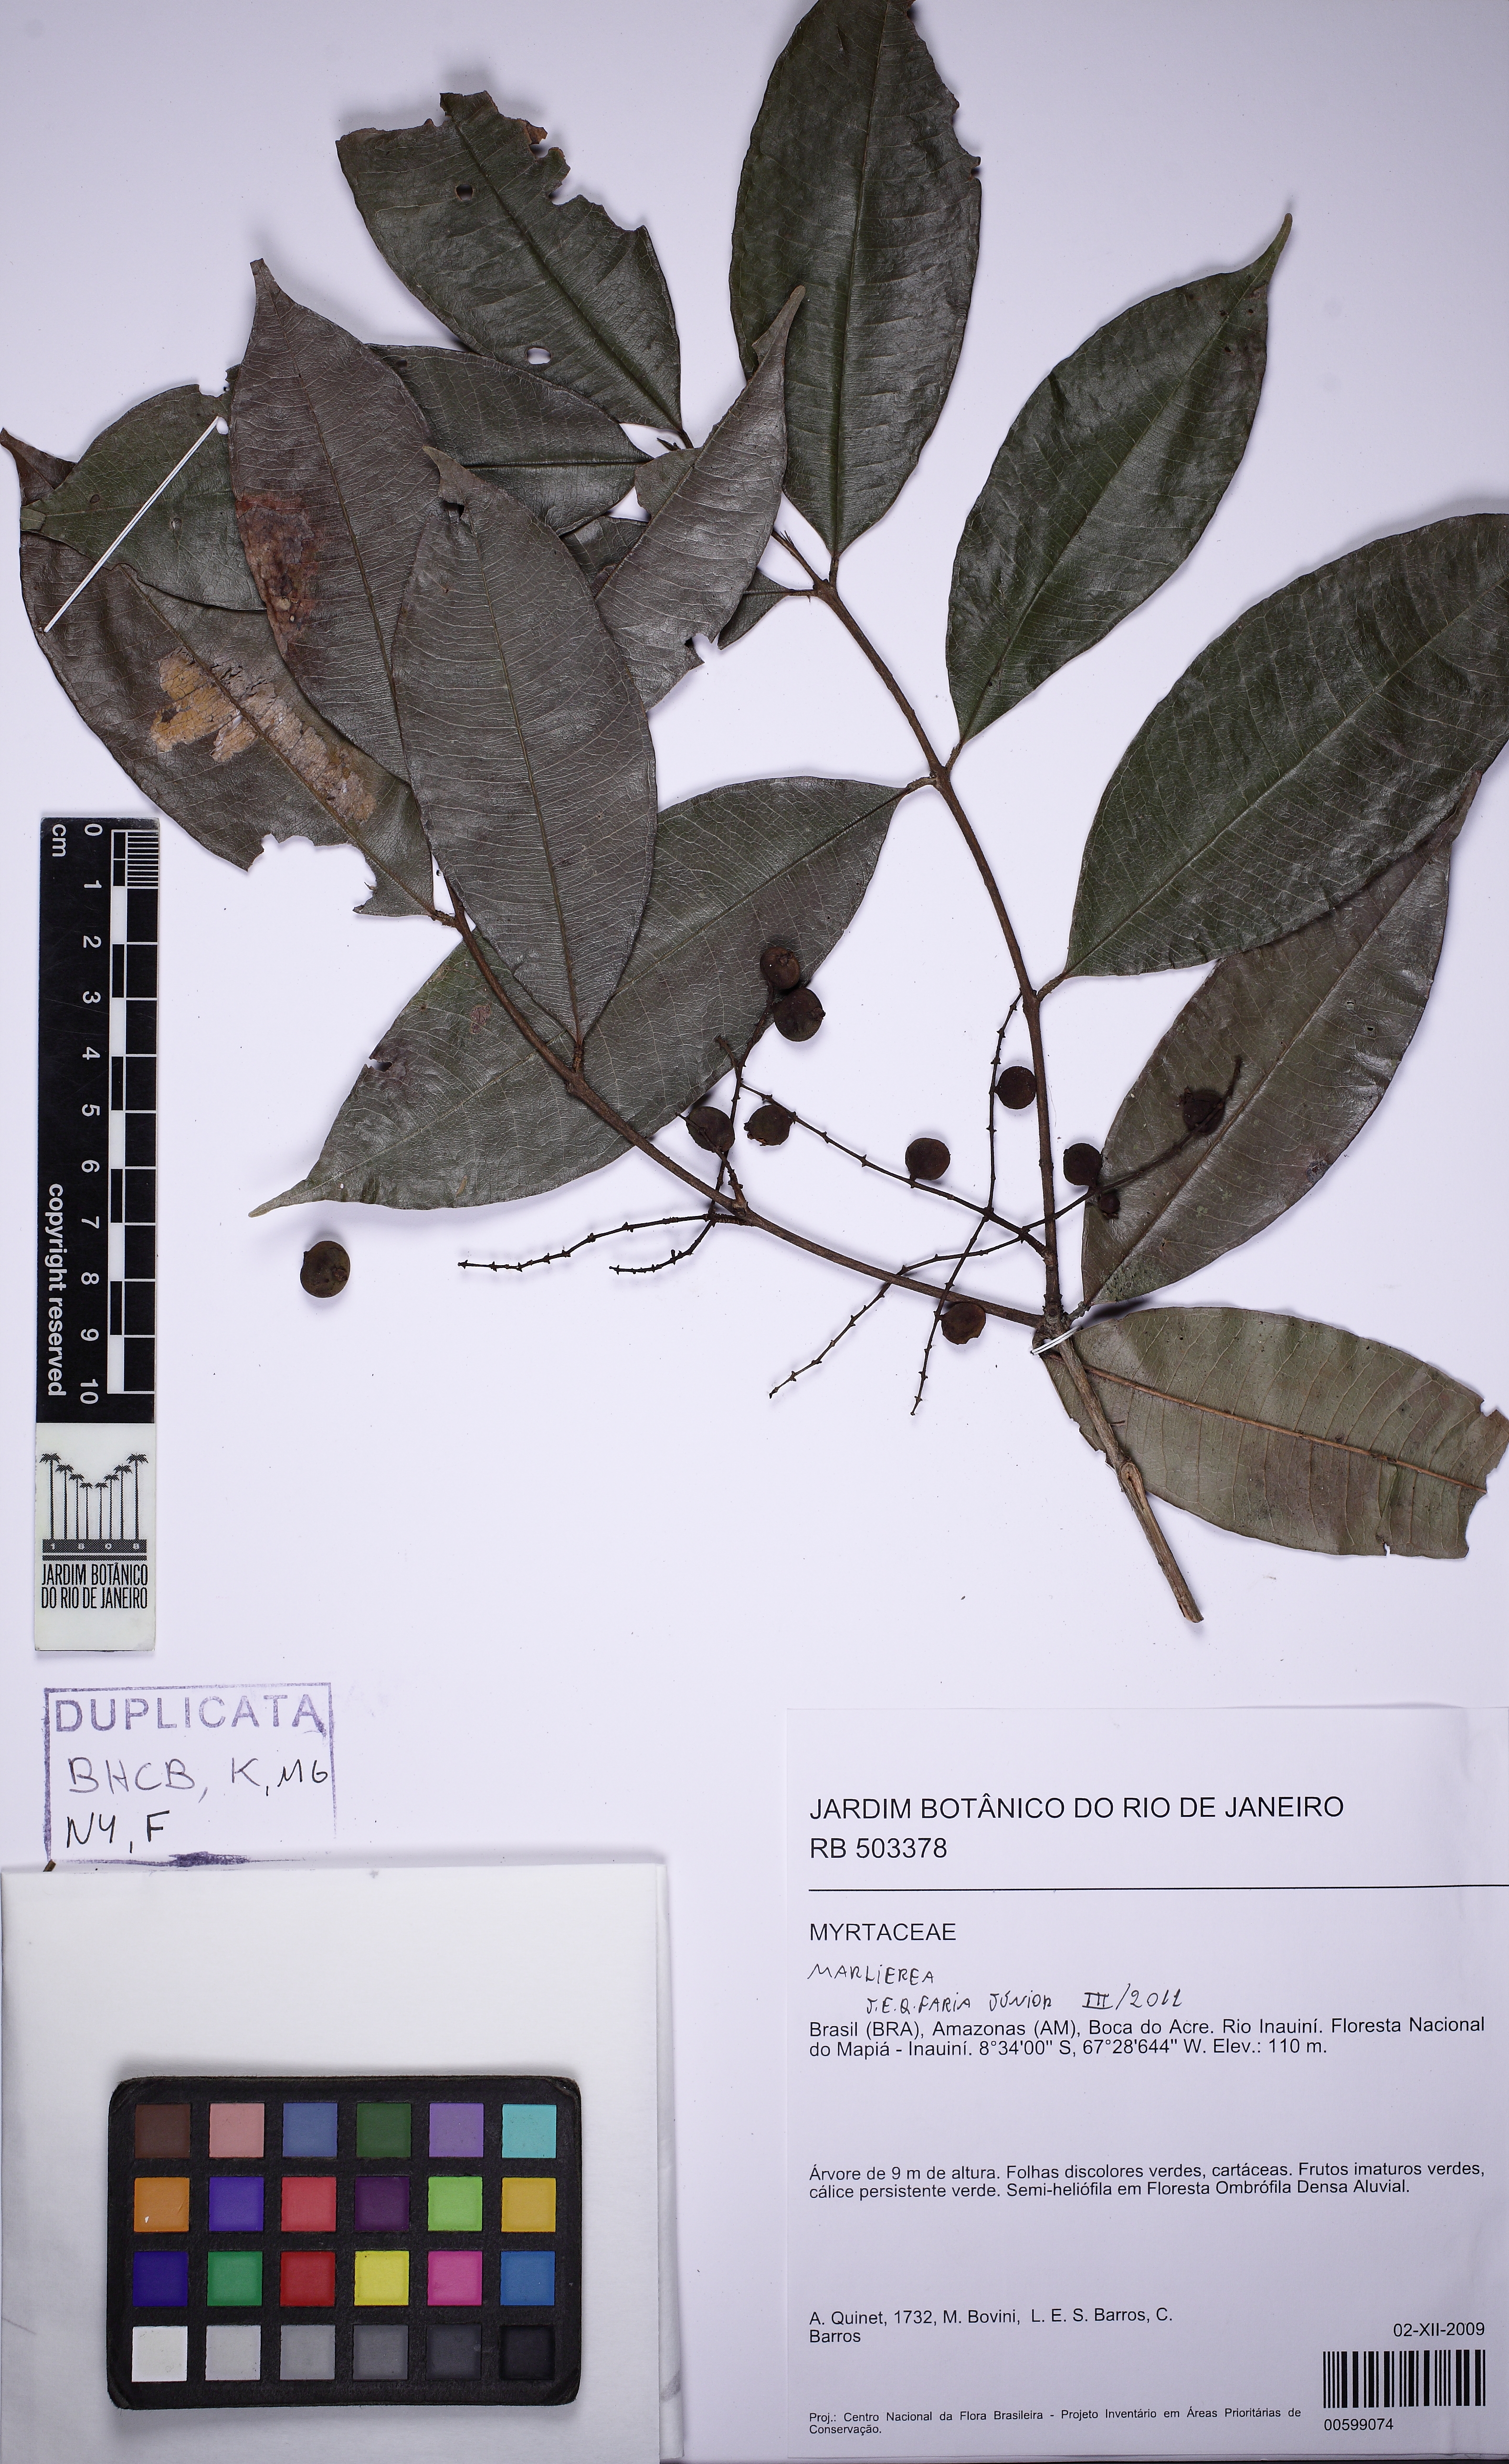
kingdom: Plantae
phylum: Tracheophyta
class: Magnoliopsida
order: Myrtales
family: Myrtaceae
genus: Myrcia
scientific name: Myrcia umbraticola
